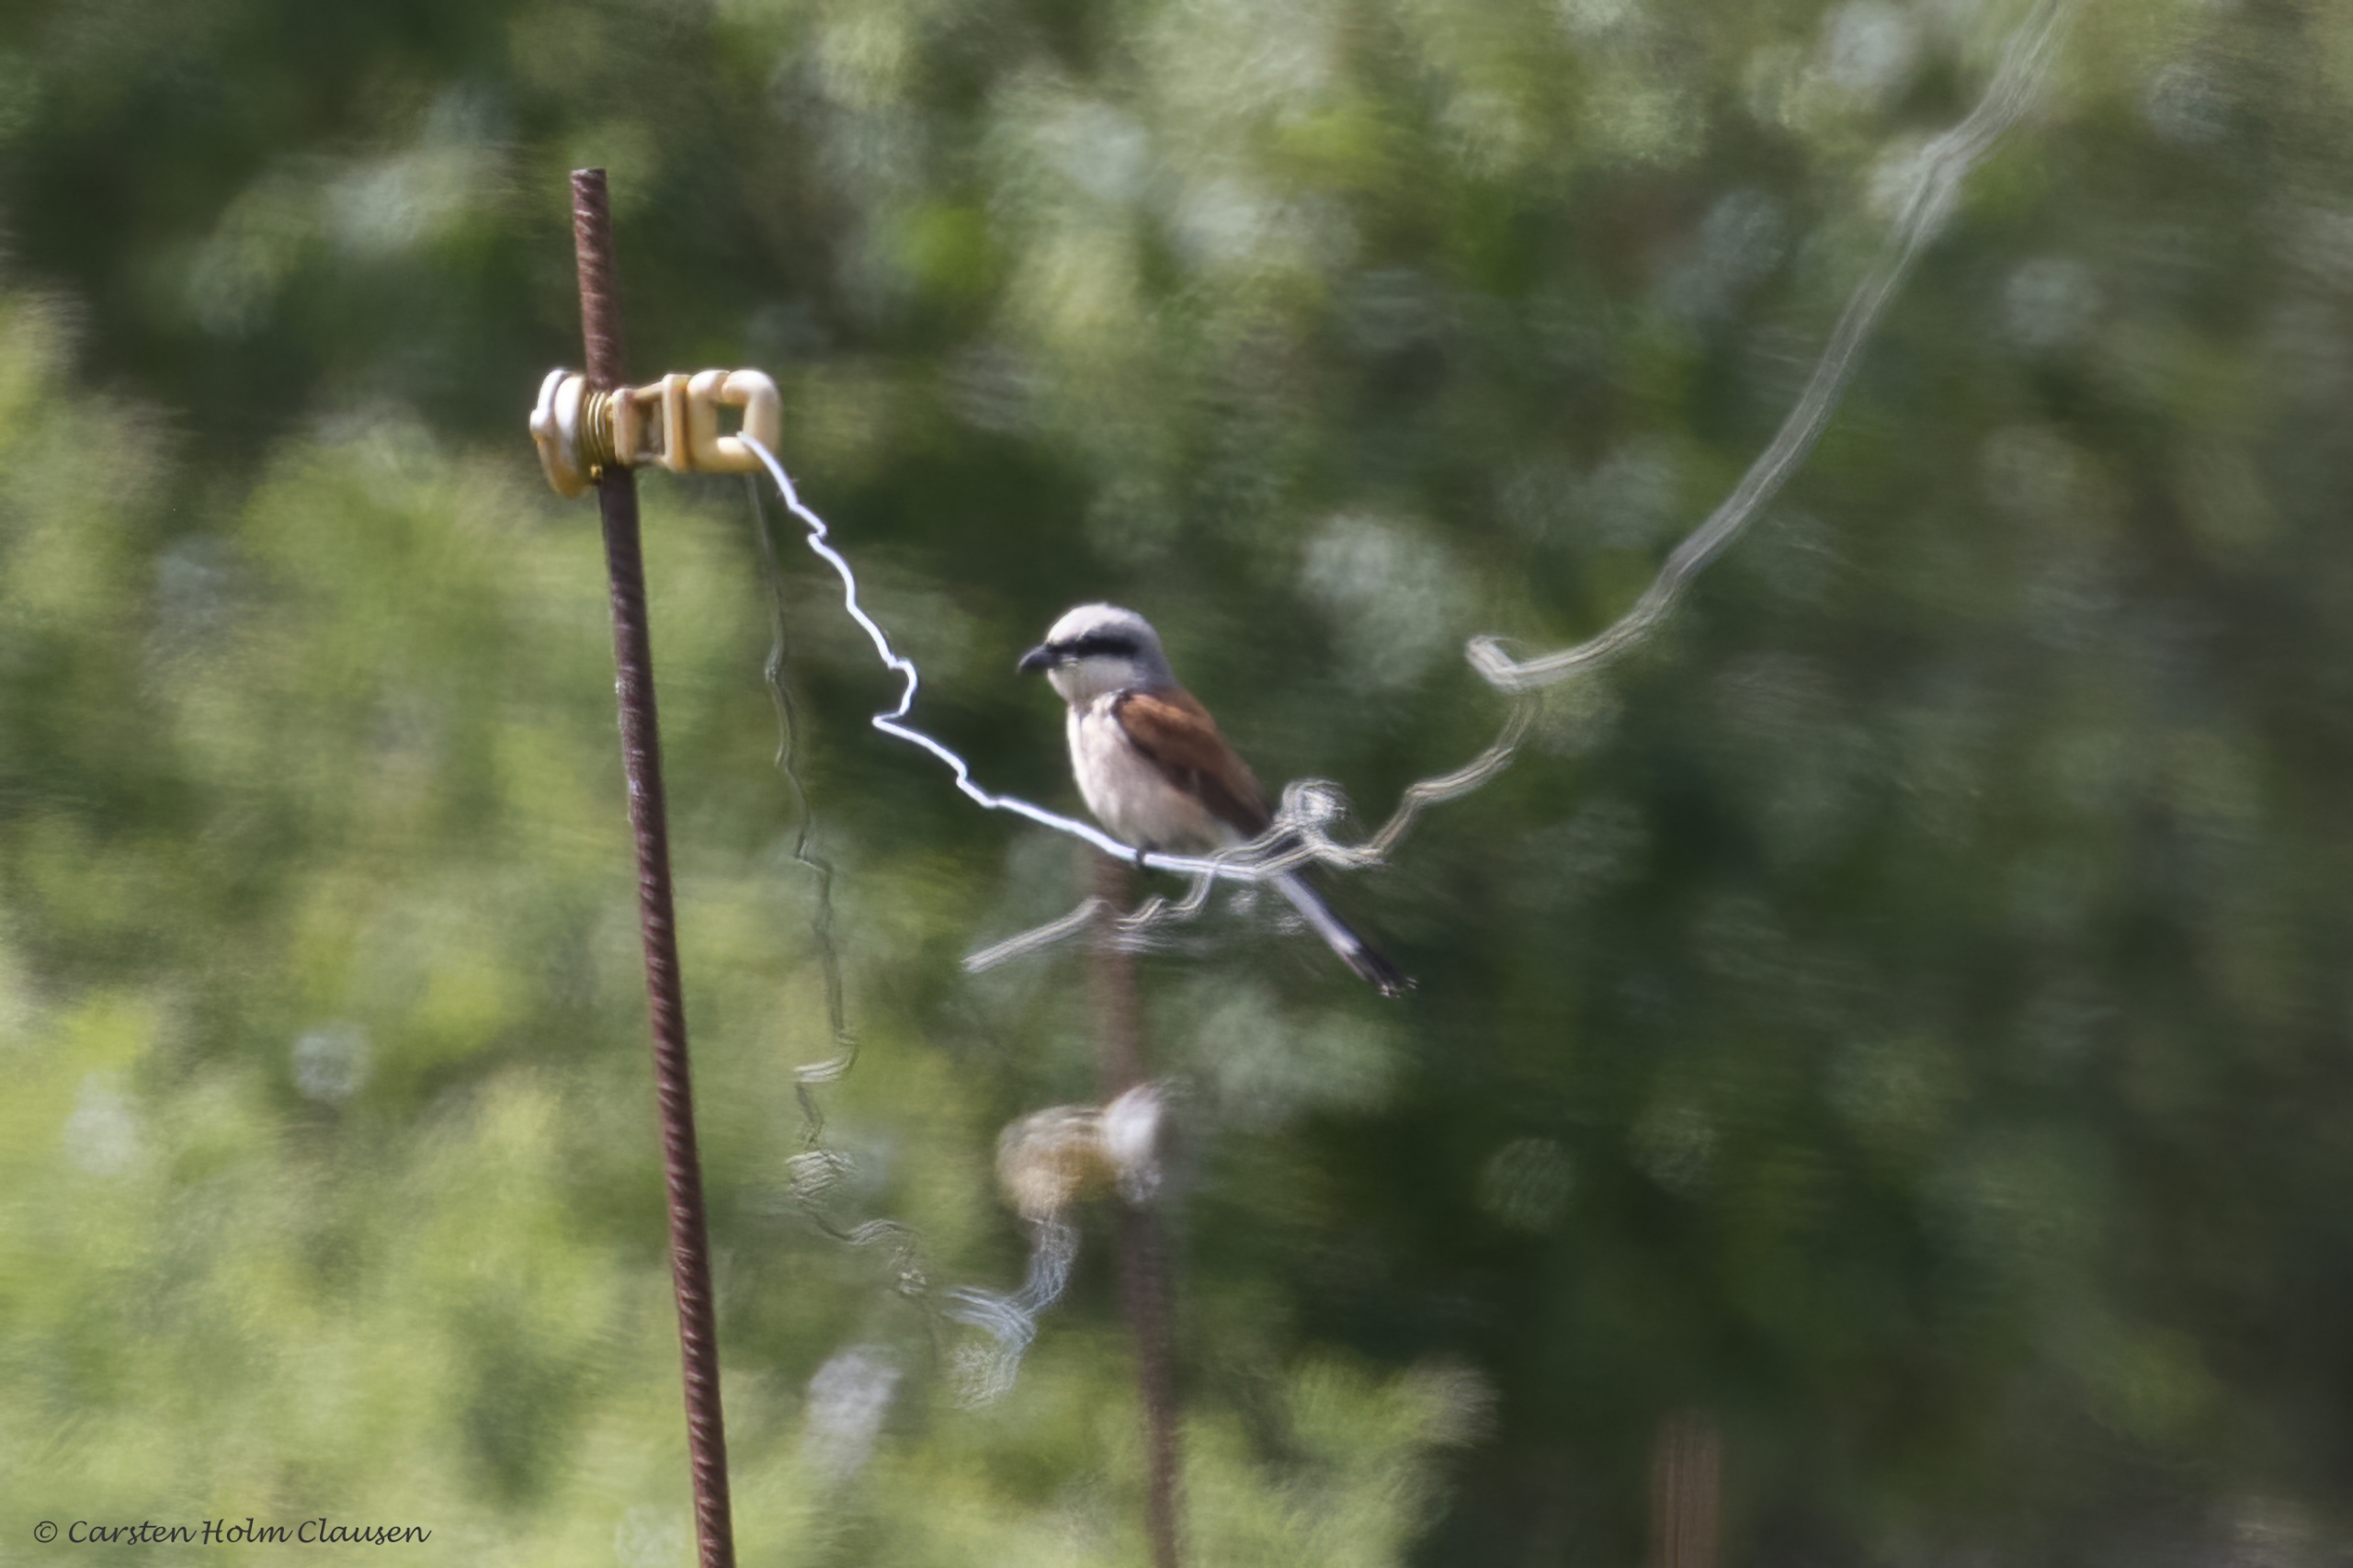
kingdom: Animalia
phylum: Chordata
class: Aves
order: Passeriformes
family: Laniidae
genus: Lanius
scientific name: Lanius collurio
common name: Rødrygget tornskade
